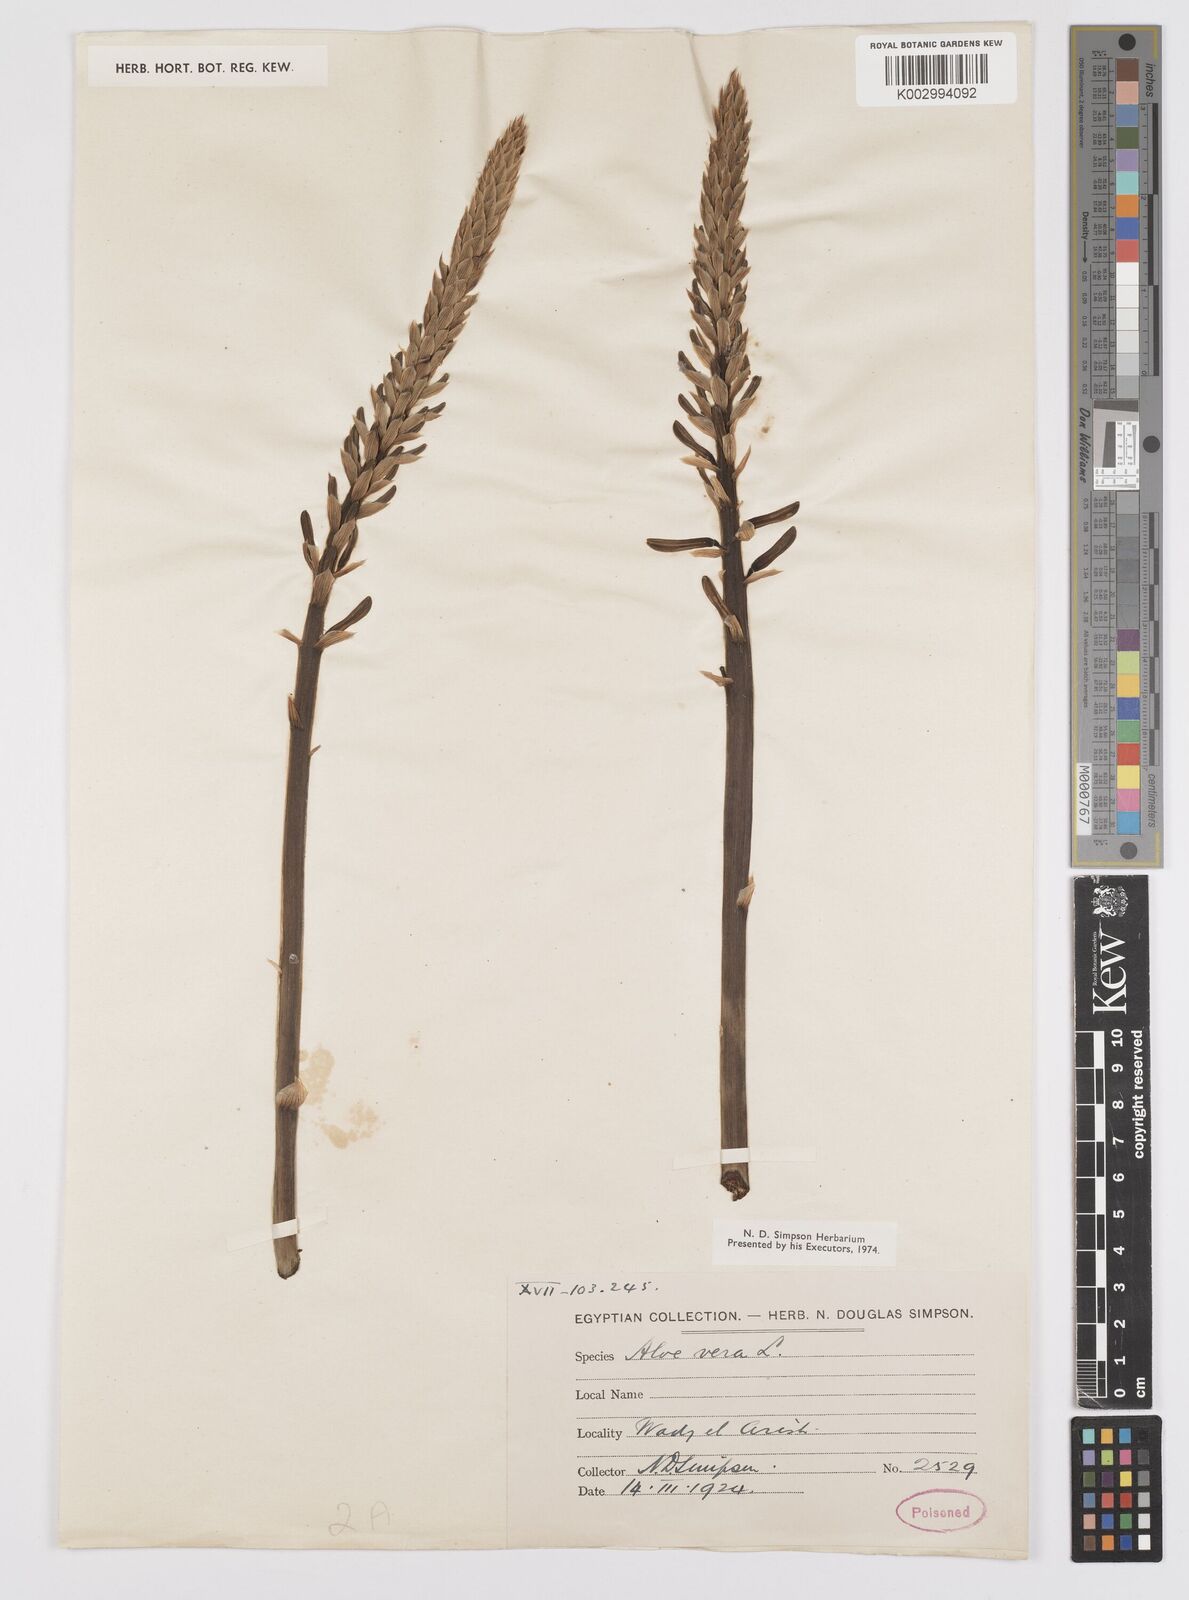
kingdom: Plantae
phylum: Tracheophyta
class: Liliopsida
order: Asparagales
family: Asphodelaceae
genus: Aloe
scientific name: Aloe vera
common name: Barbados aloe
